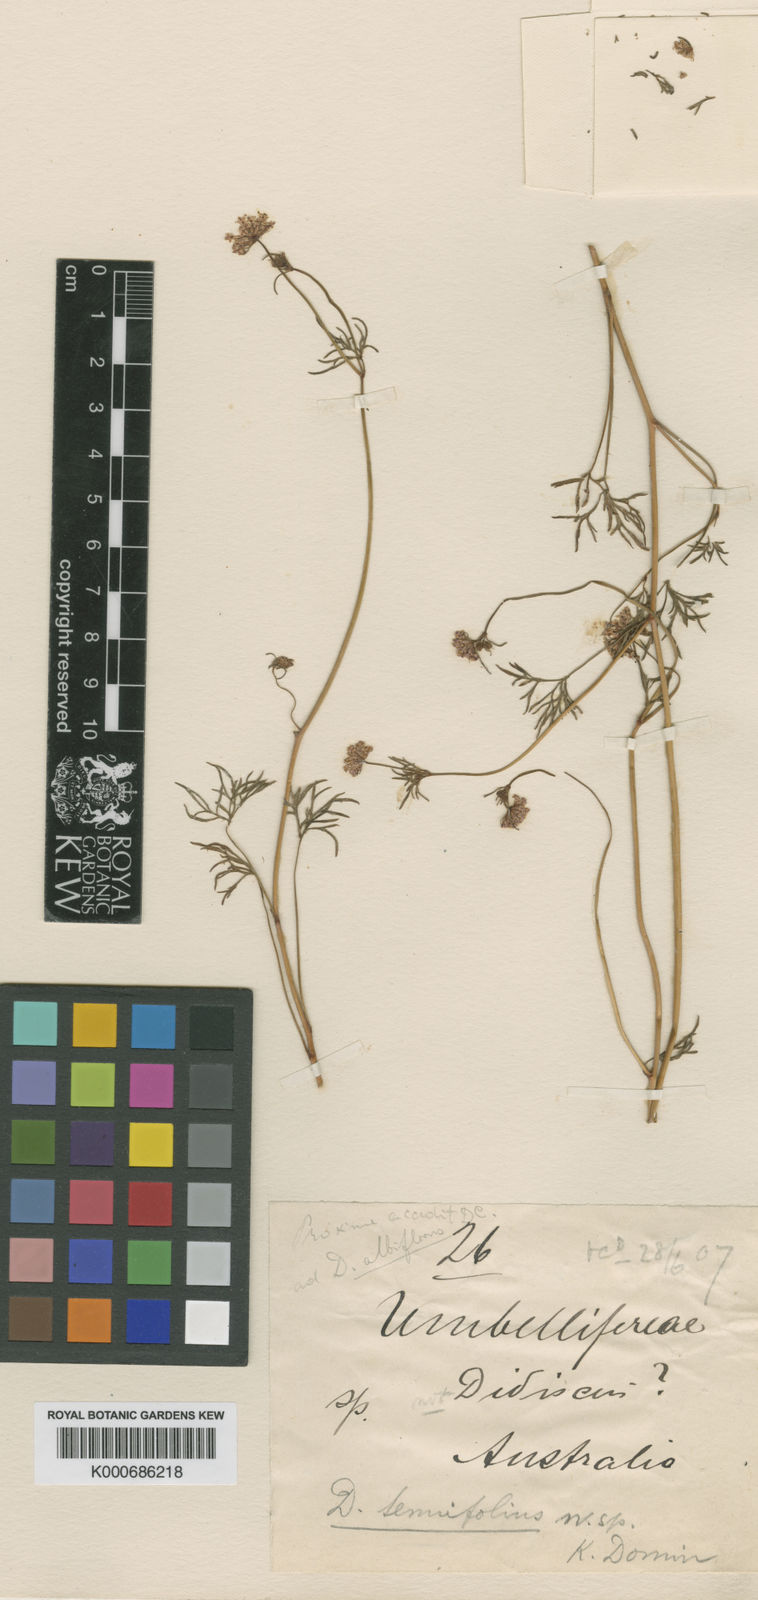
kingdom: Plantae
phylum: Tracheophyta
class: Magnoliopsida
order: Apiales
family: Araliaceae
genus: Trachymene
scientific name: Trachymene tenuifolia
